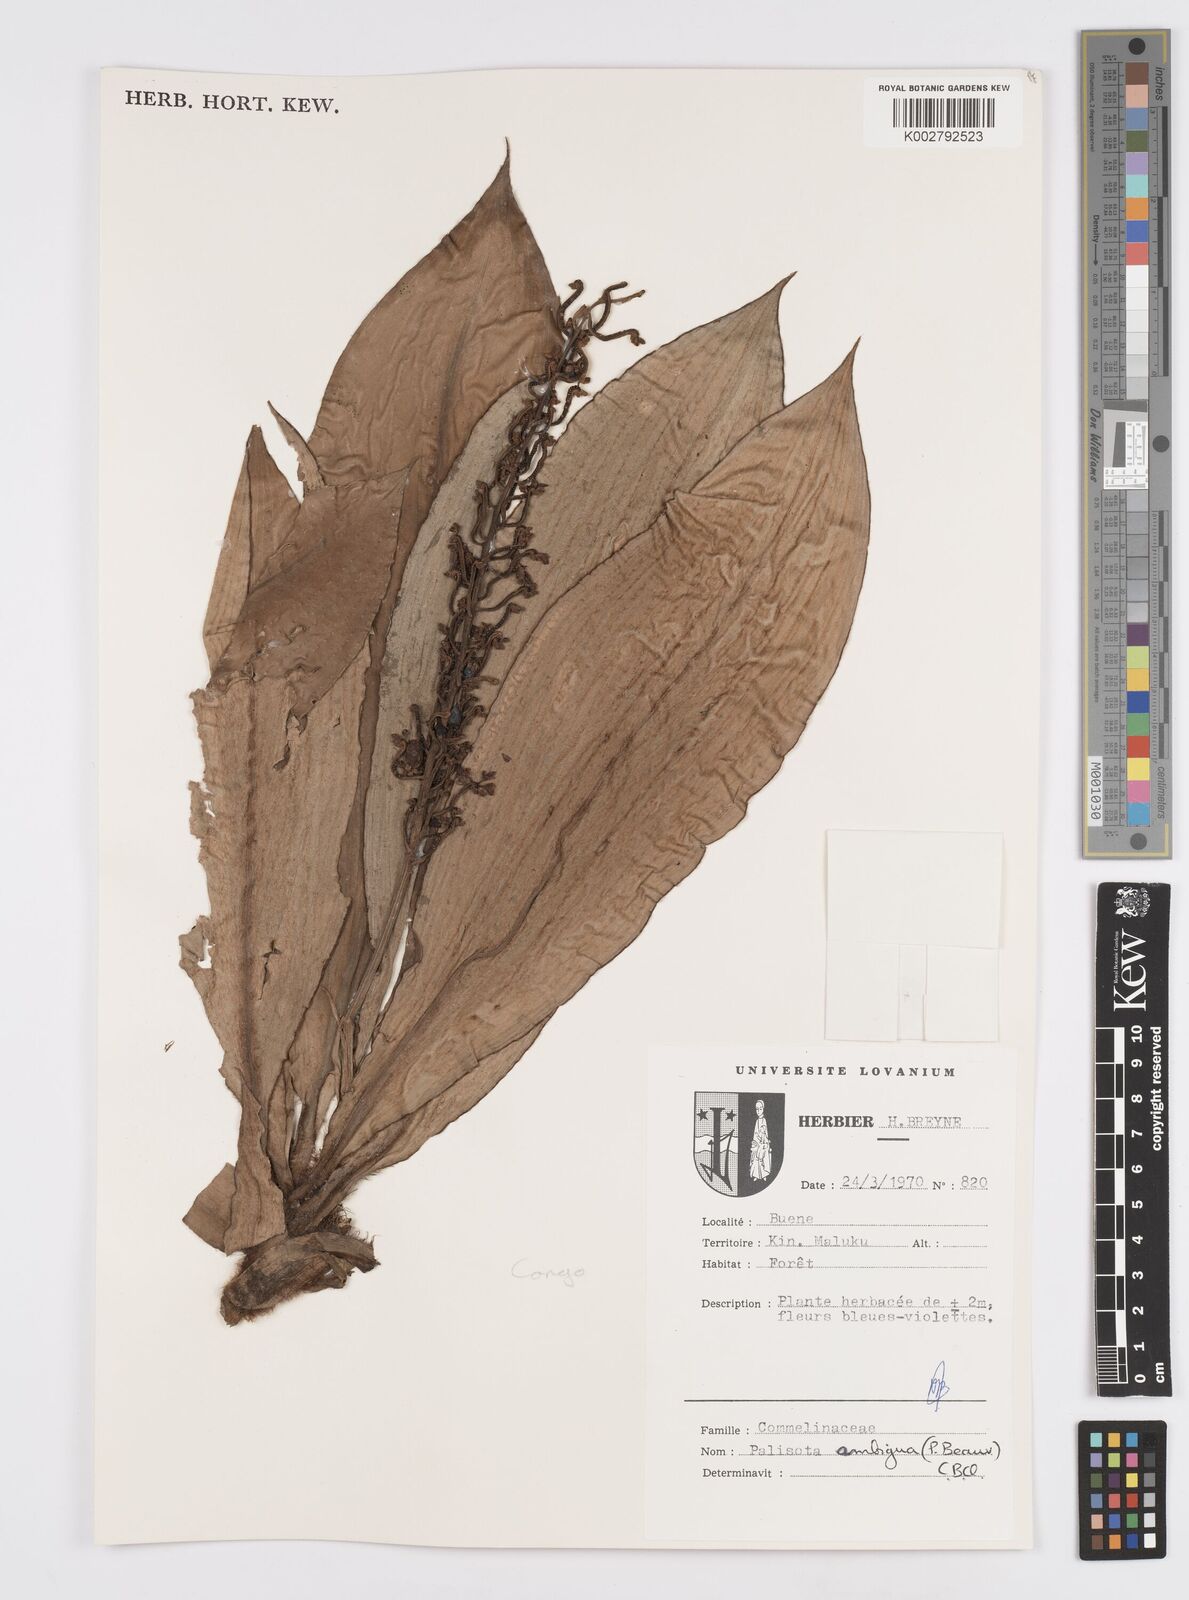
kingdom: Plantae
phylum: Tracheophyta
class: Liliopsida
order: Commelinales
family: Commelinaceae
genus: Palisota
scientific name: Palisota ambigua
